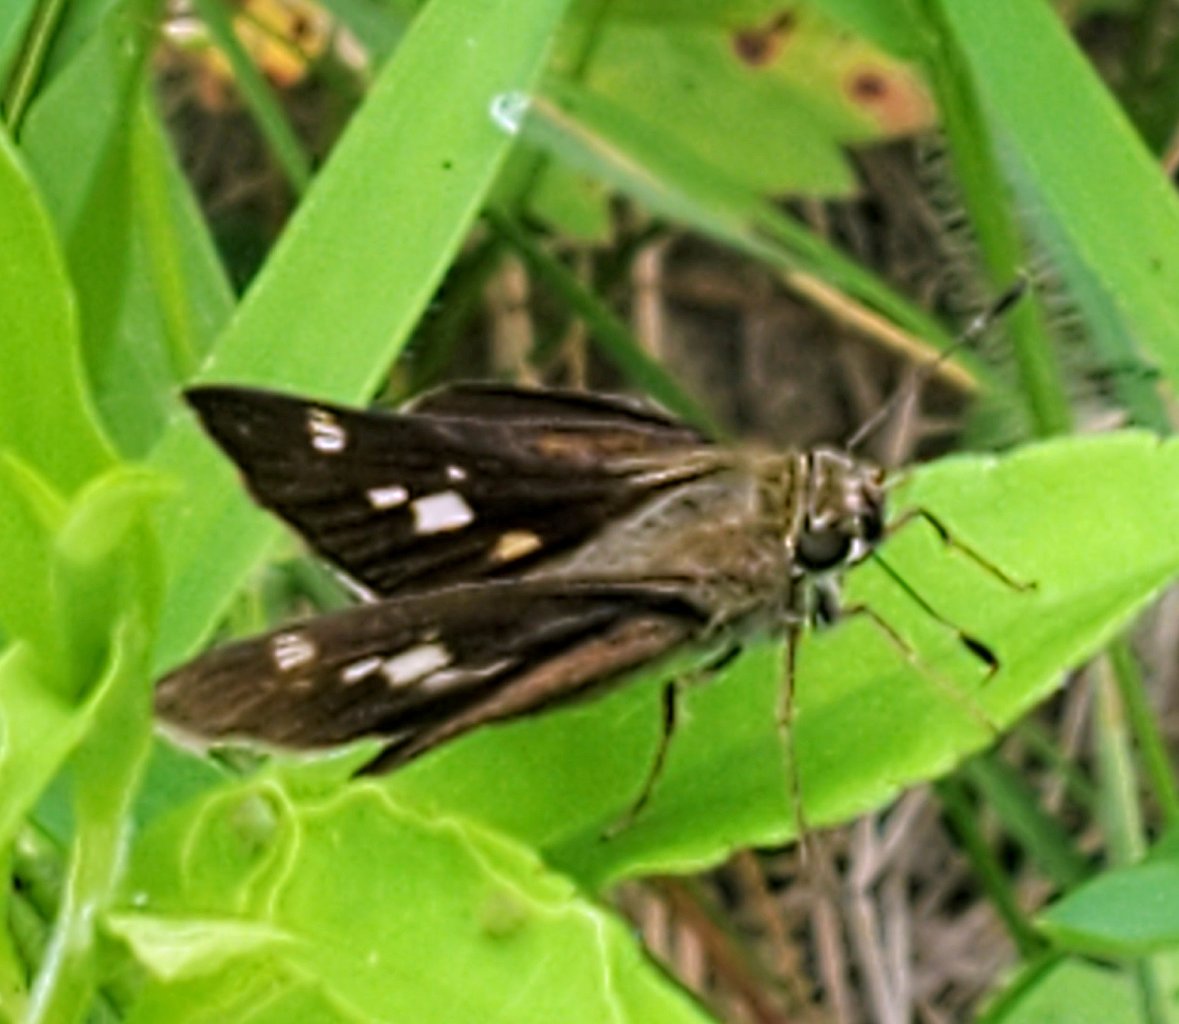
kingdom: Animalia
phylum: Arthropoda
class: Insecta
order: Lepidoptera
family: Hesperiidae
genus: Vernia
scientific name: Vernia verna
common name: Little Glassywing
